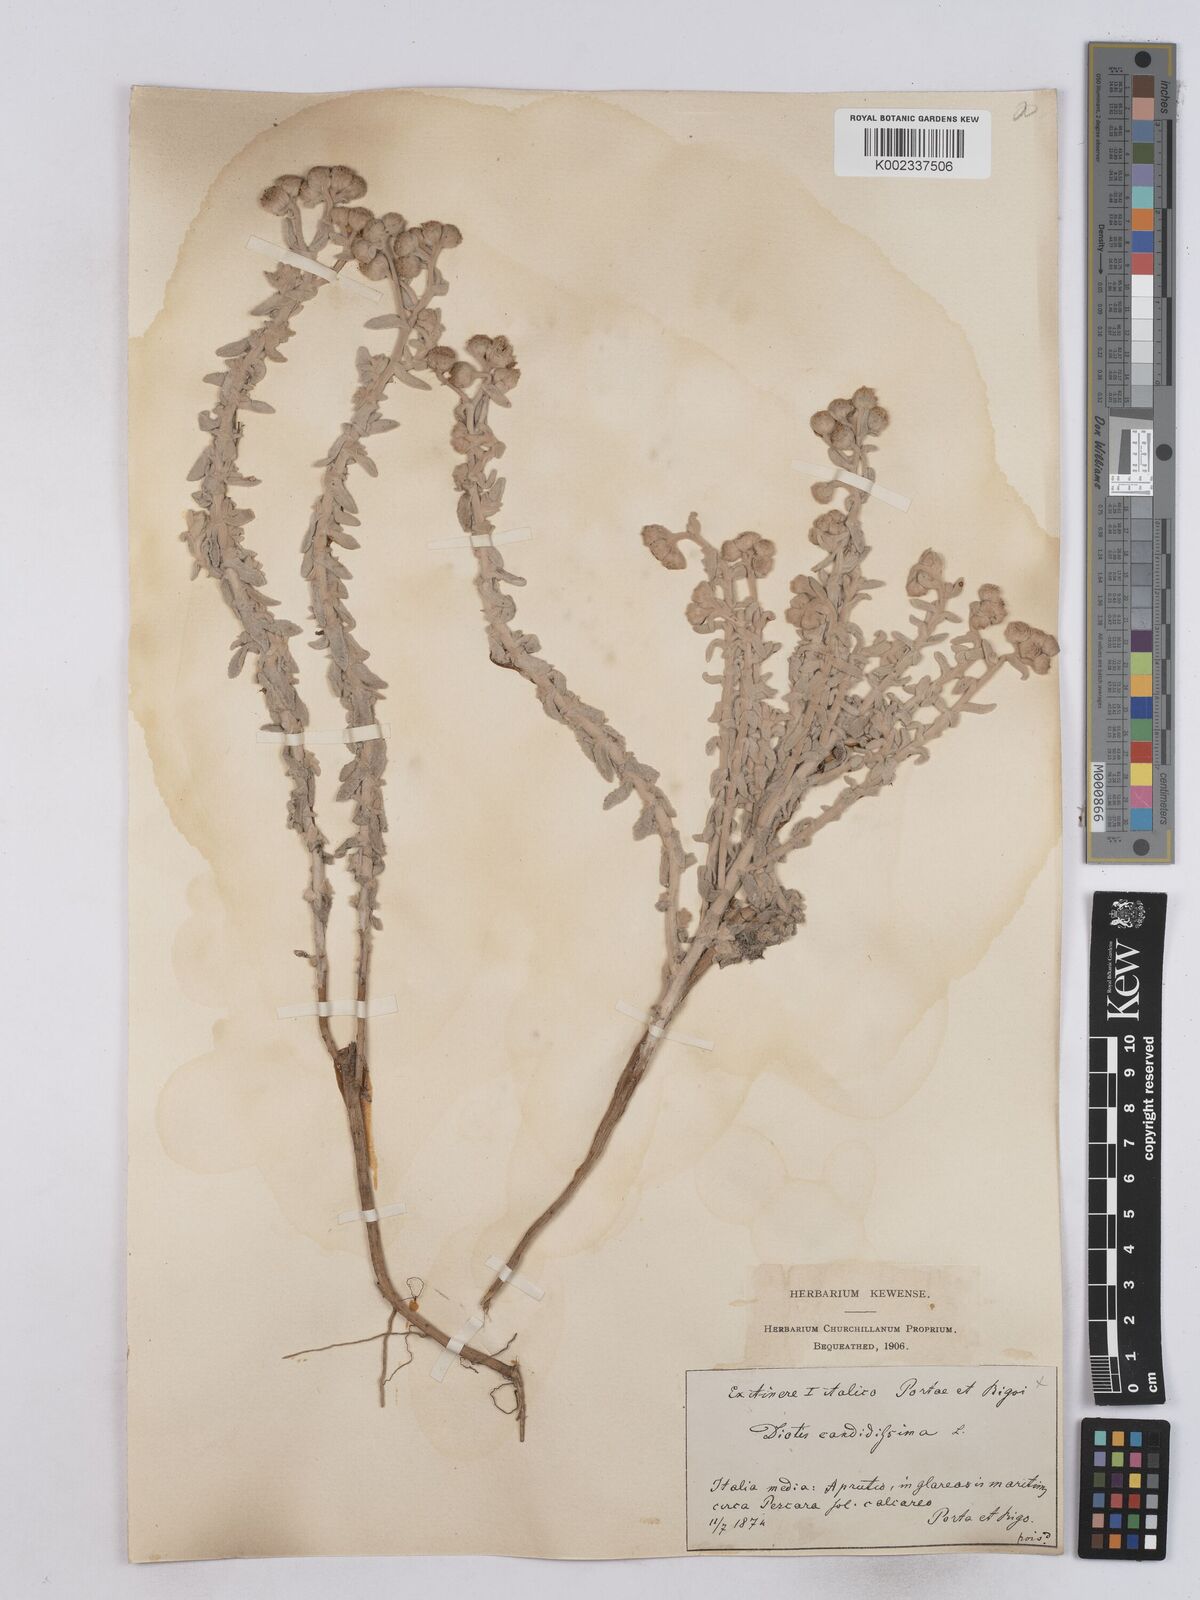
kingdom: Plantae
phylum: Tracheophyta
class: Magnoliopsida
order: Asterales
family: Asteraceae
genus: Achillea
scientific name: Achillea maritima
